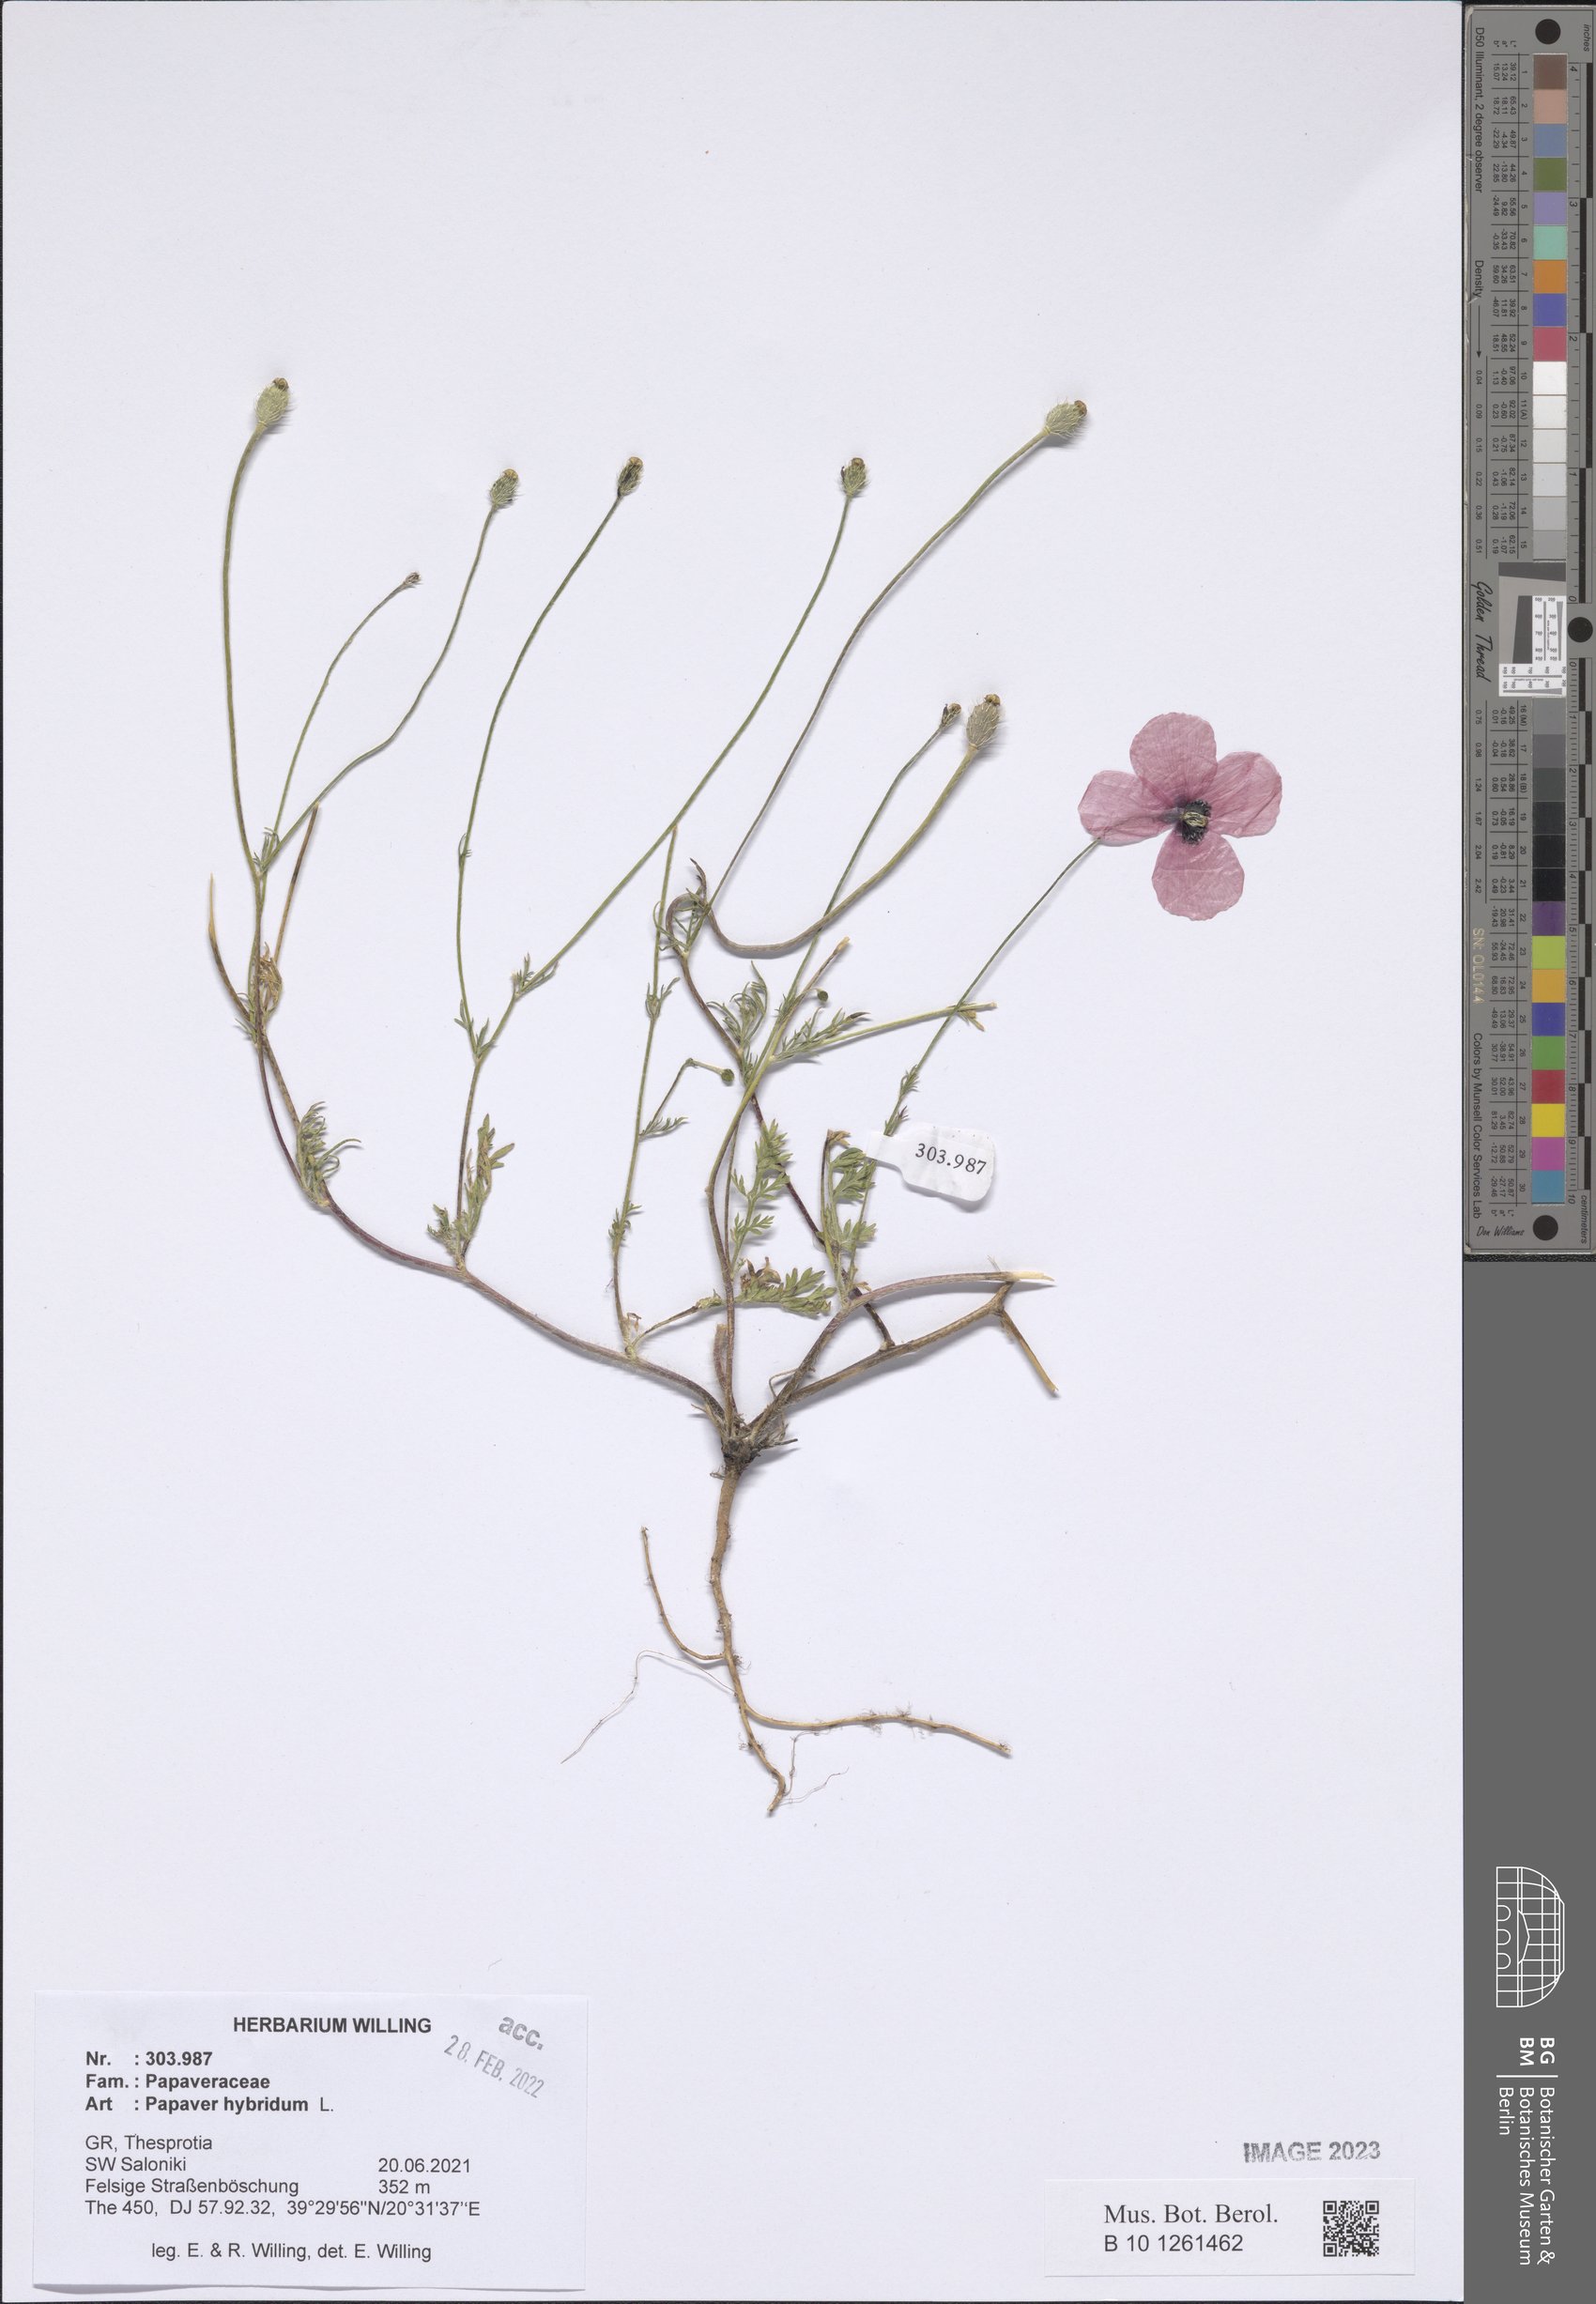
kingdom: Plantae
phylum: Tracheophyta
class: Magnoliopsida
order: Ranunculales
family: Papaveraceae
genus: Roemeria
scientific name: Roemeria hispida
